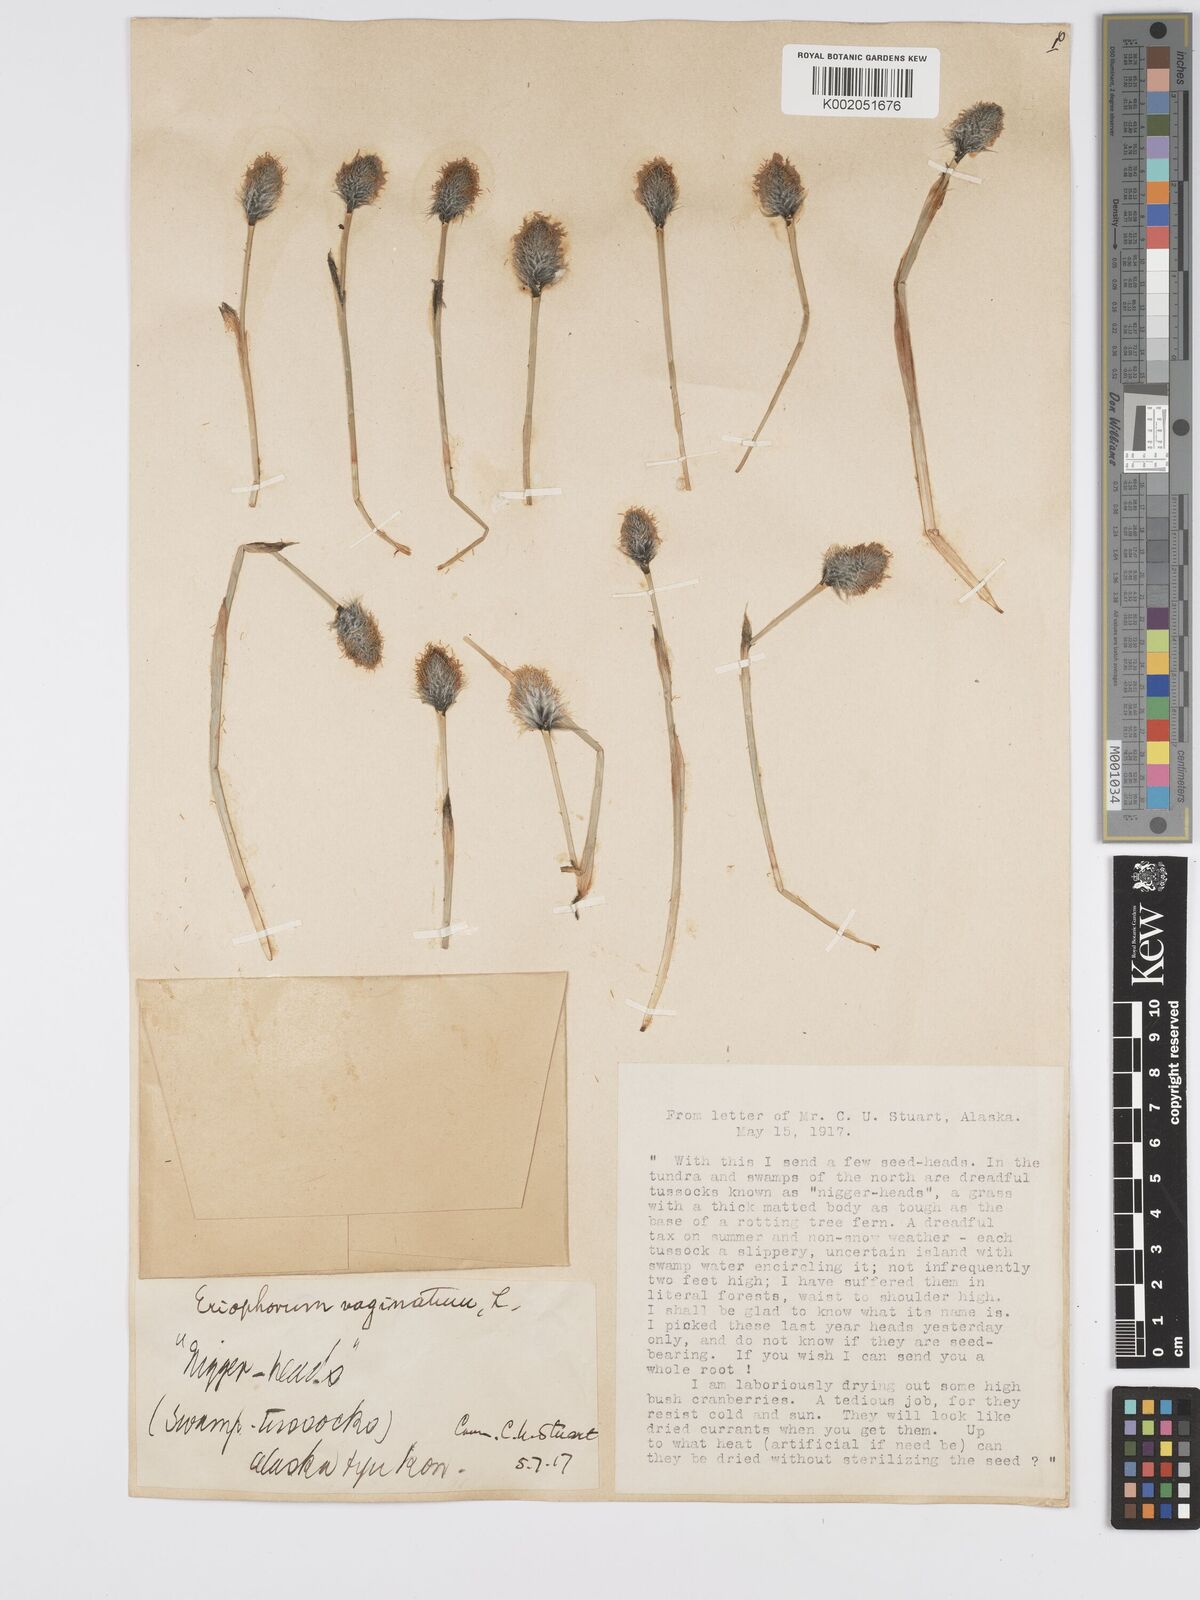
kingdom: Plantae
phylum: Tracheophyta
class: Liliopsida
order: Poales
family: Cyperaceae
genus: Eriophorum
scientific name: Eriophorum vaginatum
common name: Hare's-tail cottongrass
